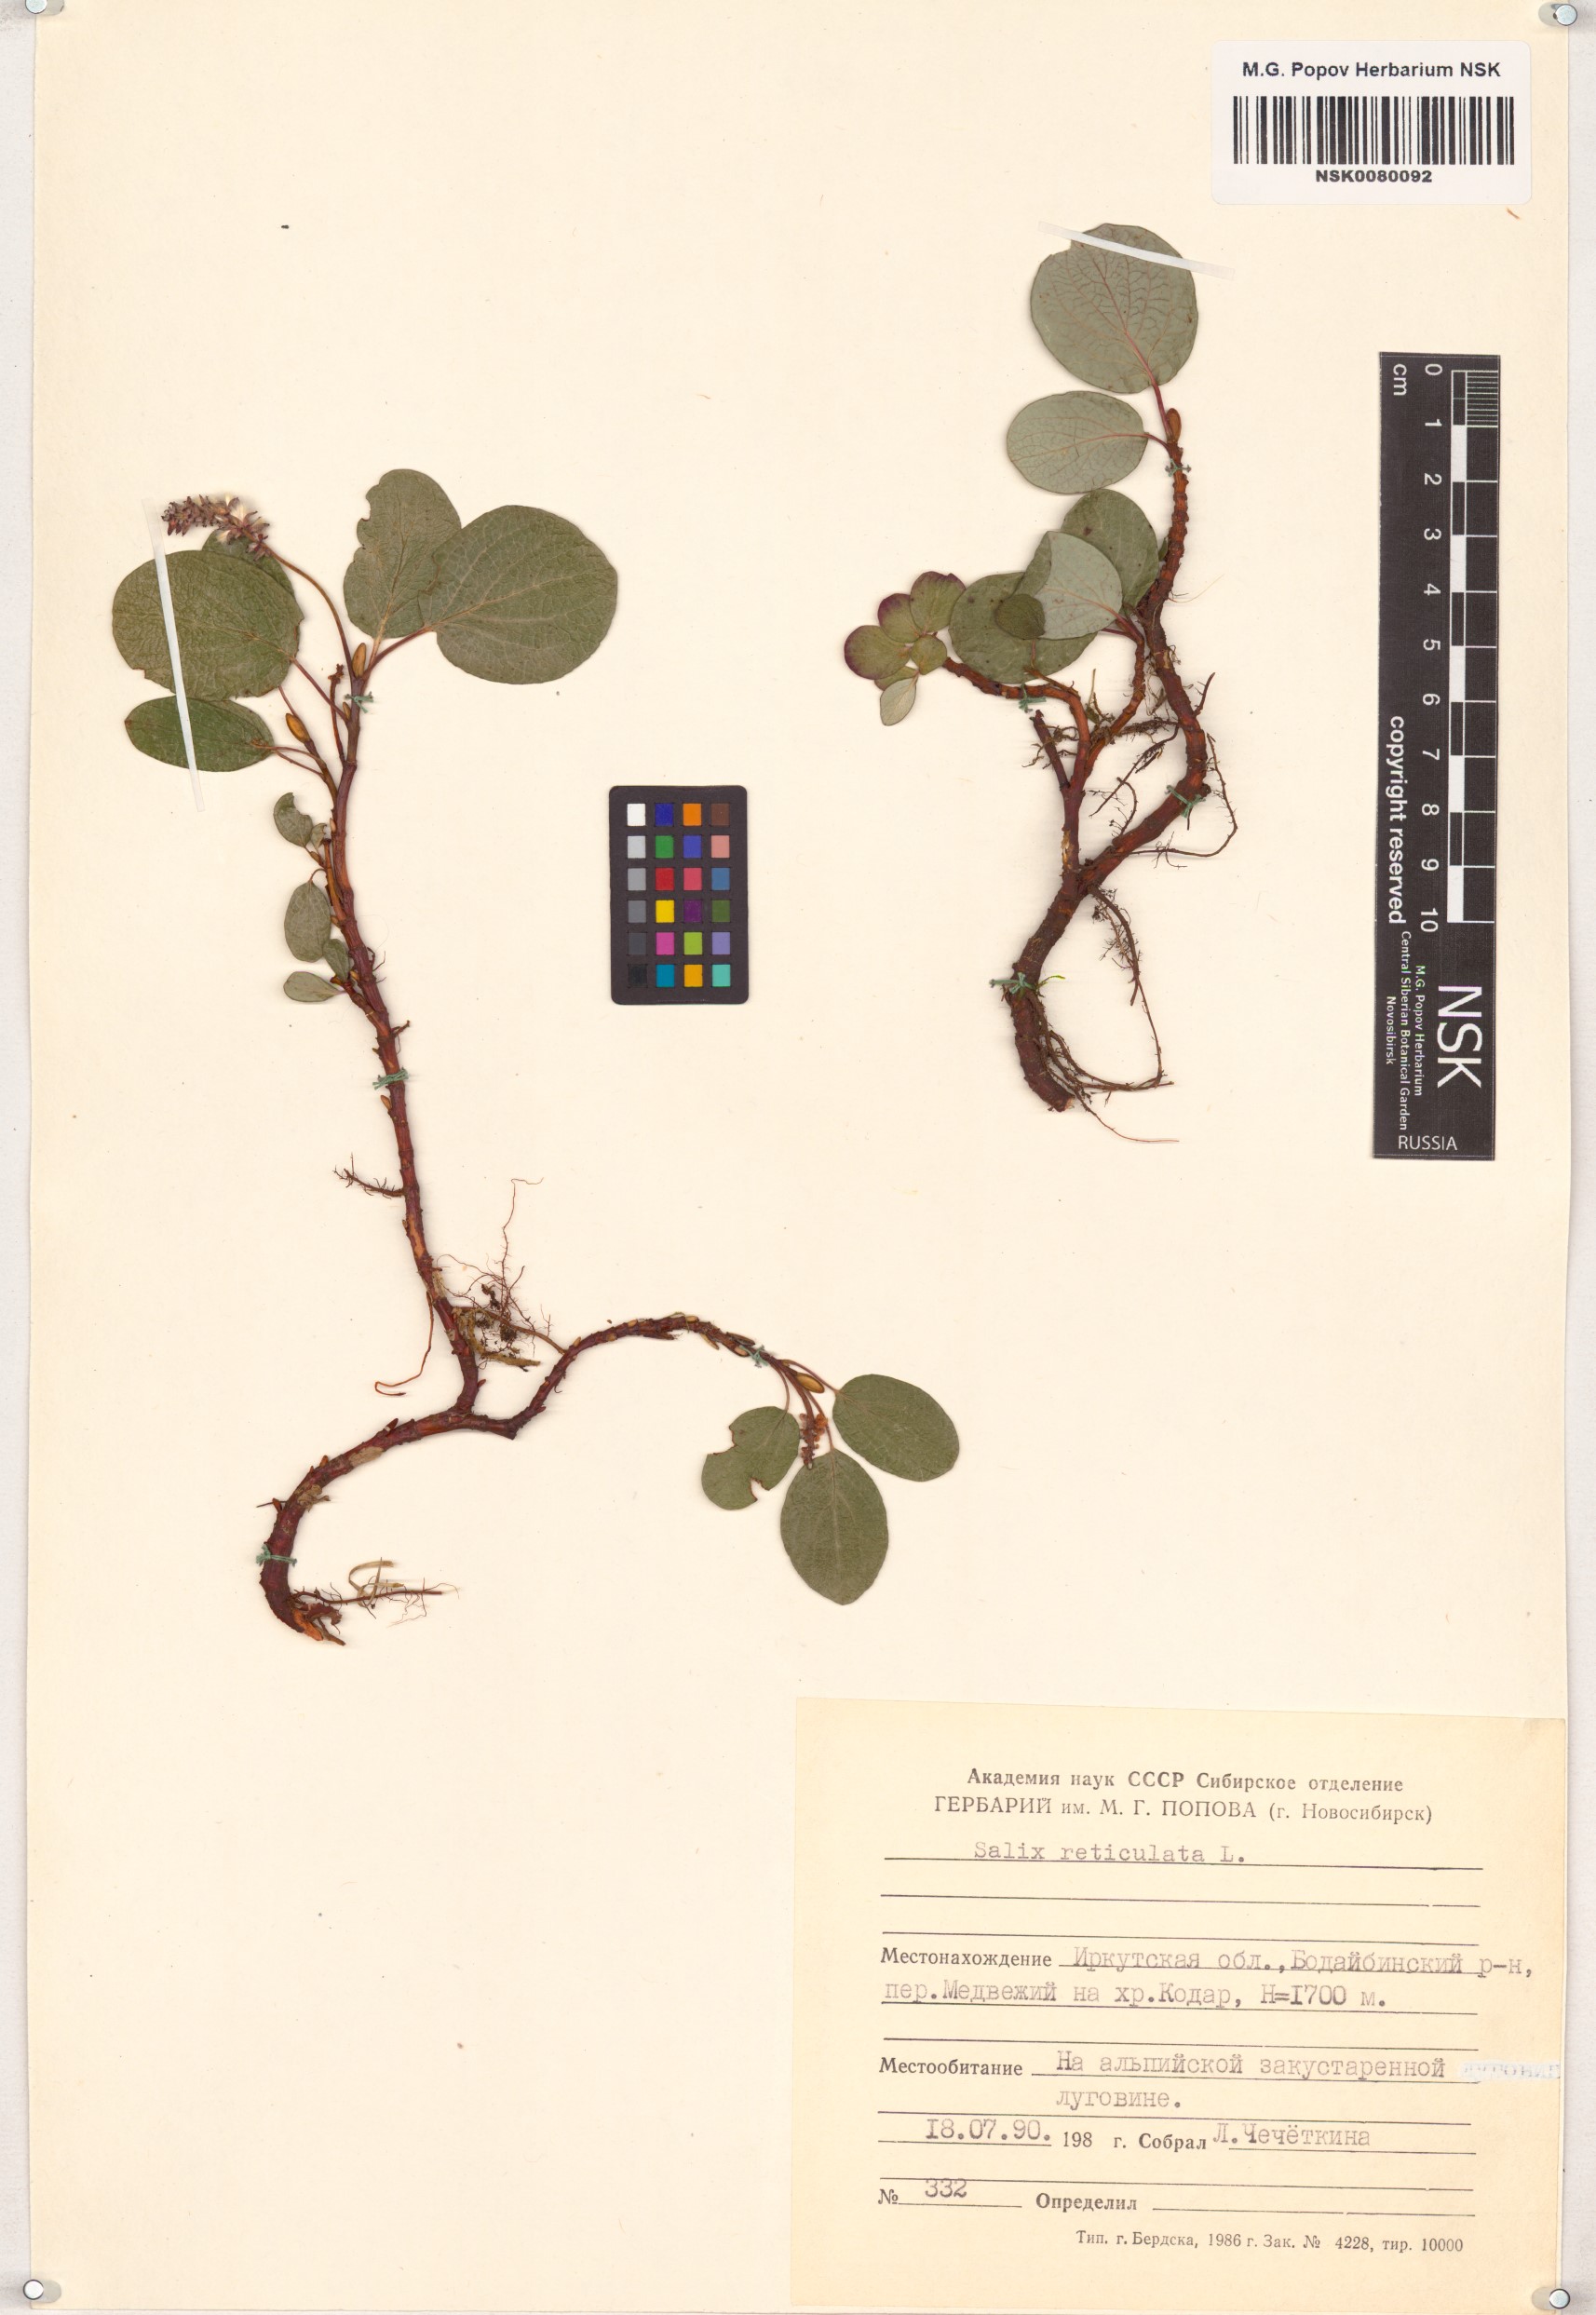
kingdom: Plantae
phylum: Tracheophyta
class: Magnoliopsida
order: Malpighiales
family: Salicaceae
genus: Salix
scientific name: Salix reticulata
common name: Net-leaved willow
